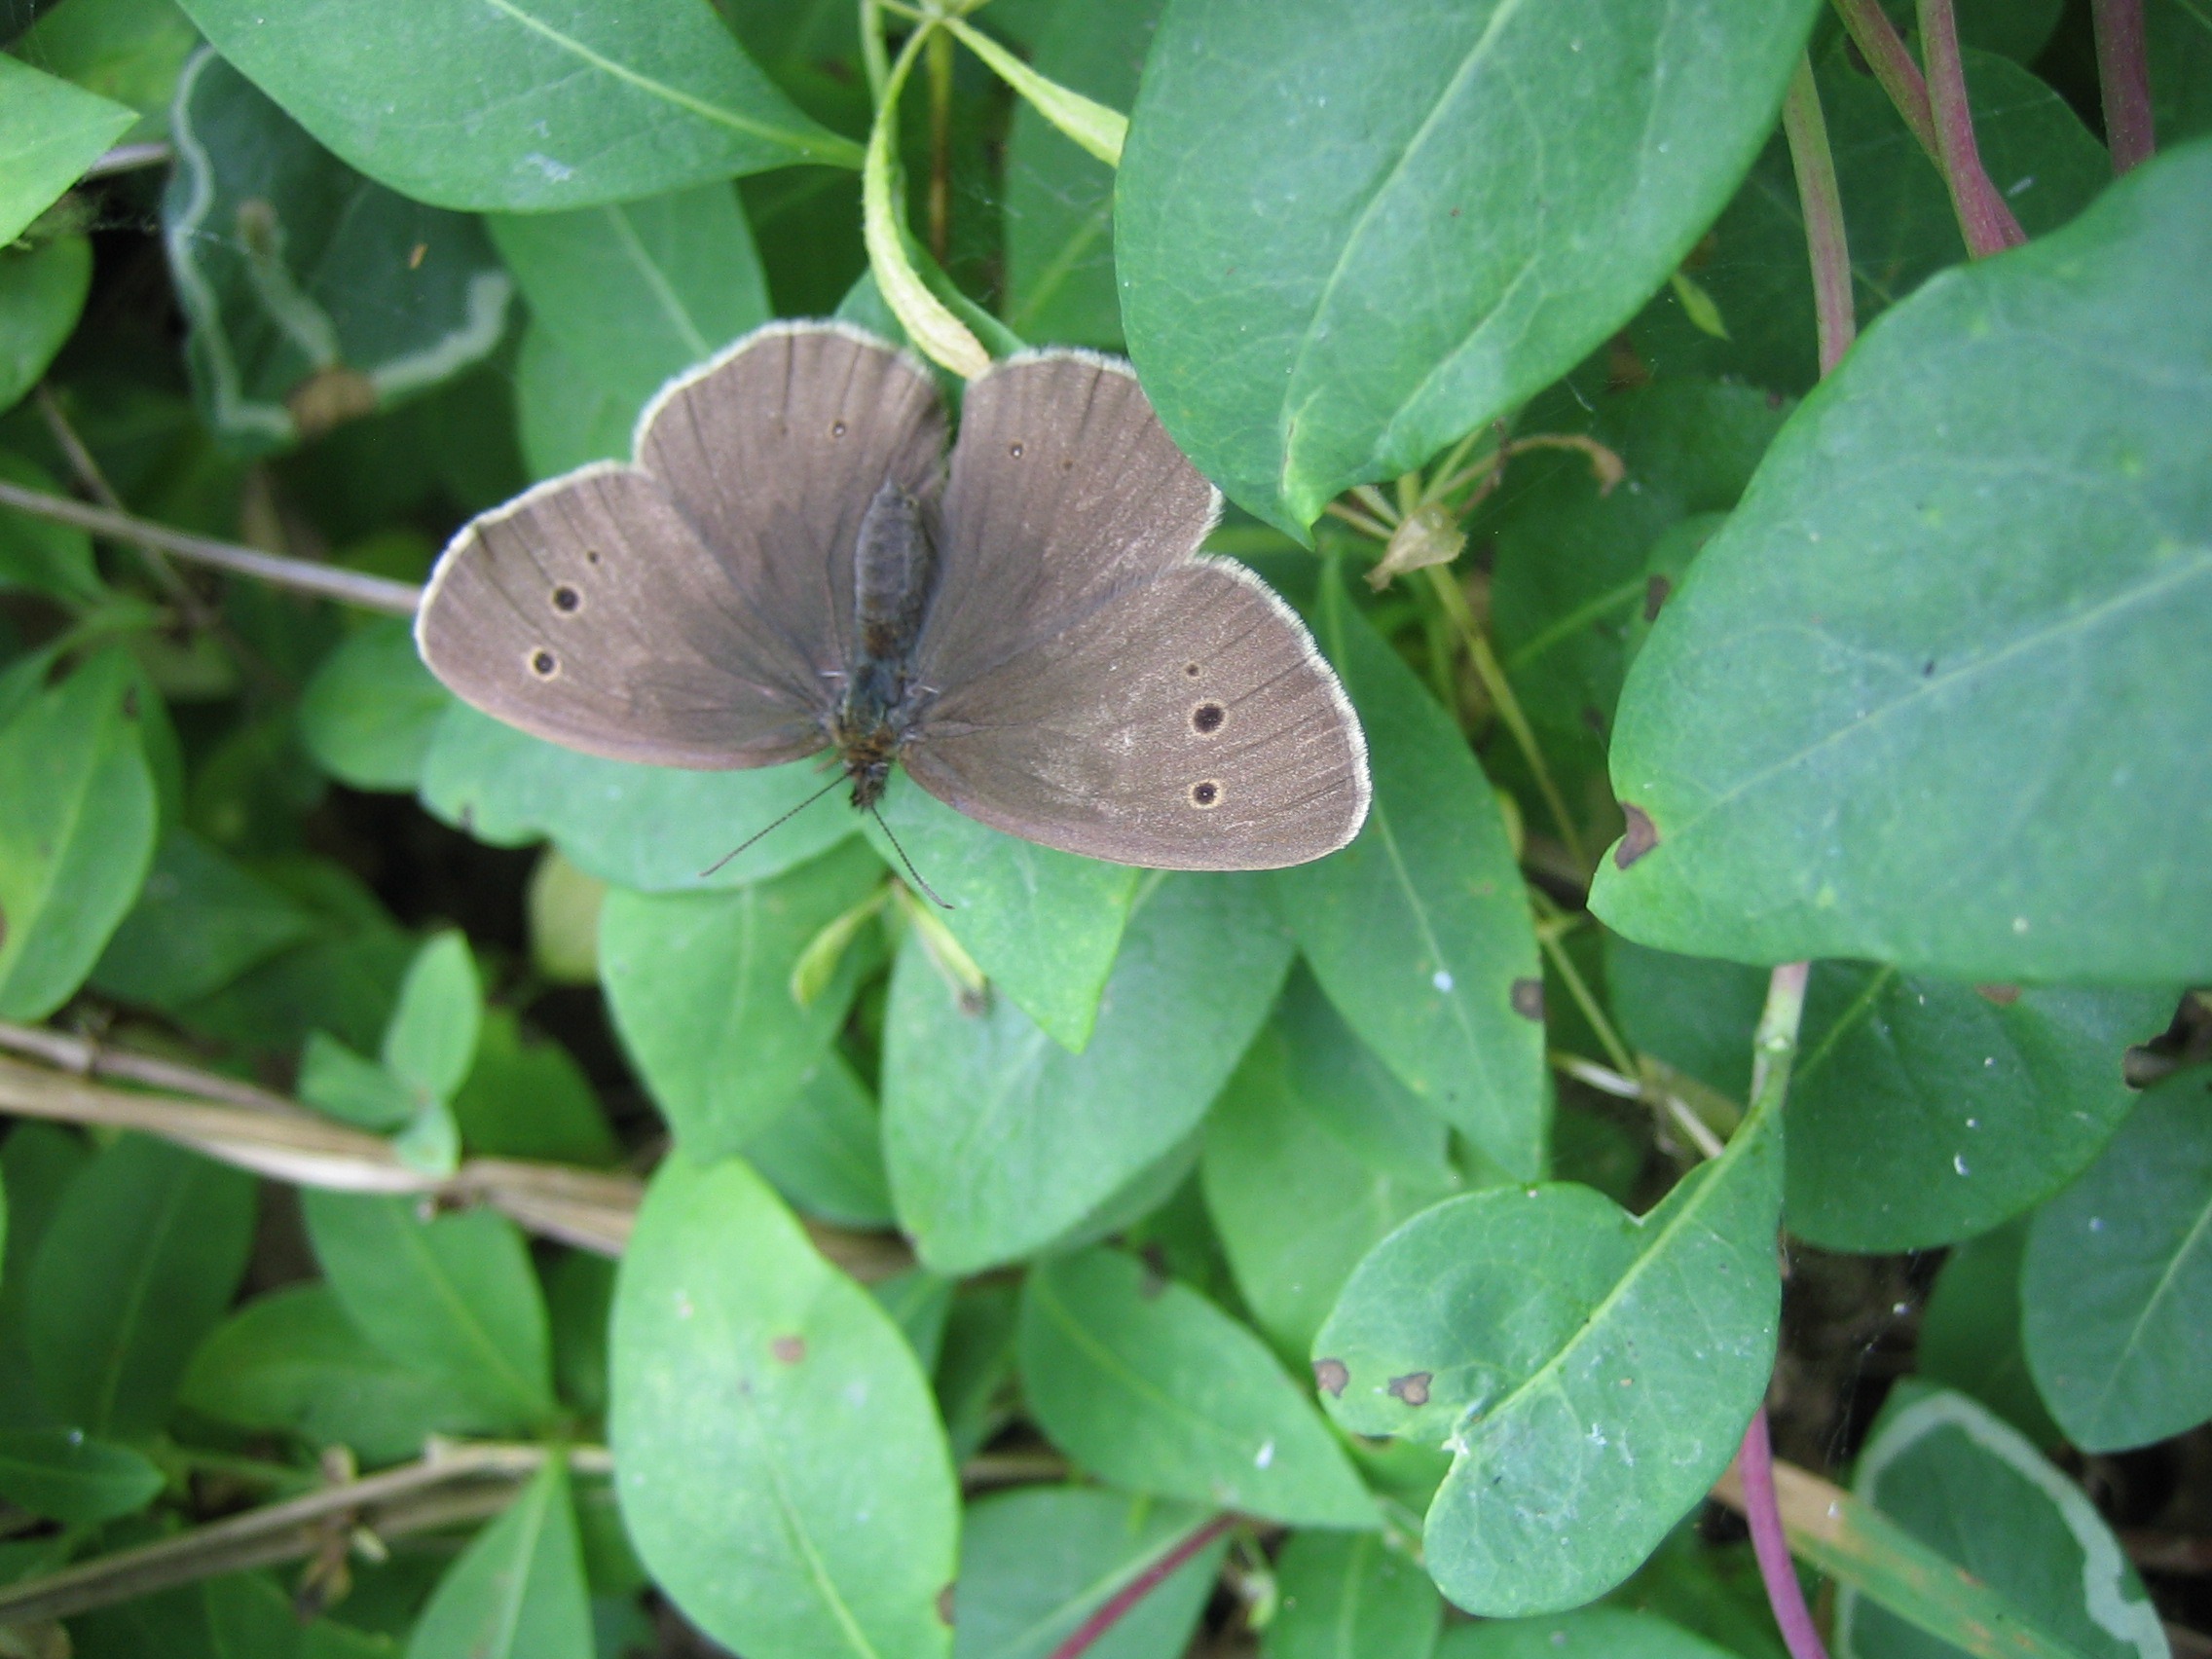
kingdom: Animalia
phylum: Arthropoda
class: Insecta
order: Lepidoptera
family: Nymphalidae
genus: Aphantopus
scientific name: Aphantopus hyperantus
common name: Engrandøje
